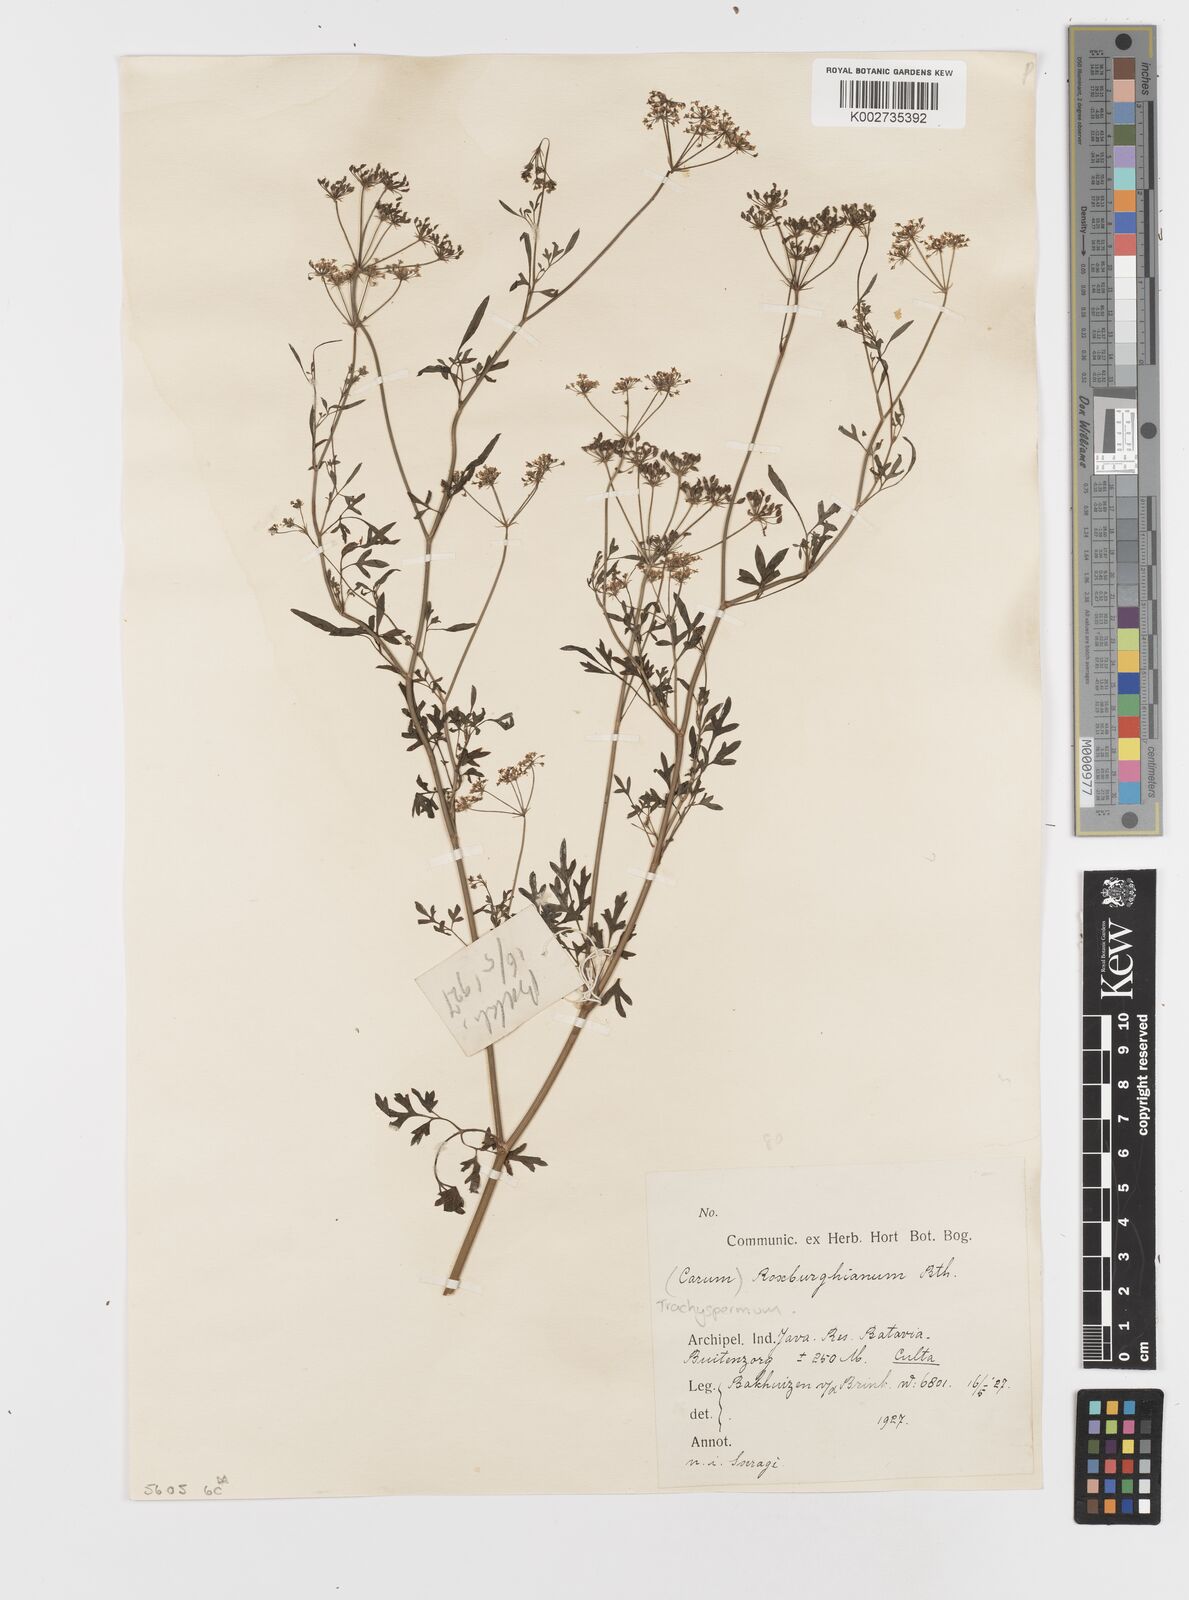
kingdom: Plantae
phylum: Tracheophyta
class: Magnoliopsida
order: Apiales
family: Apiaceae
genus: Psammogeton
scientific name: Psammogeton involucratum
